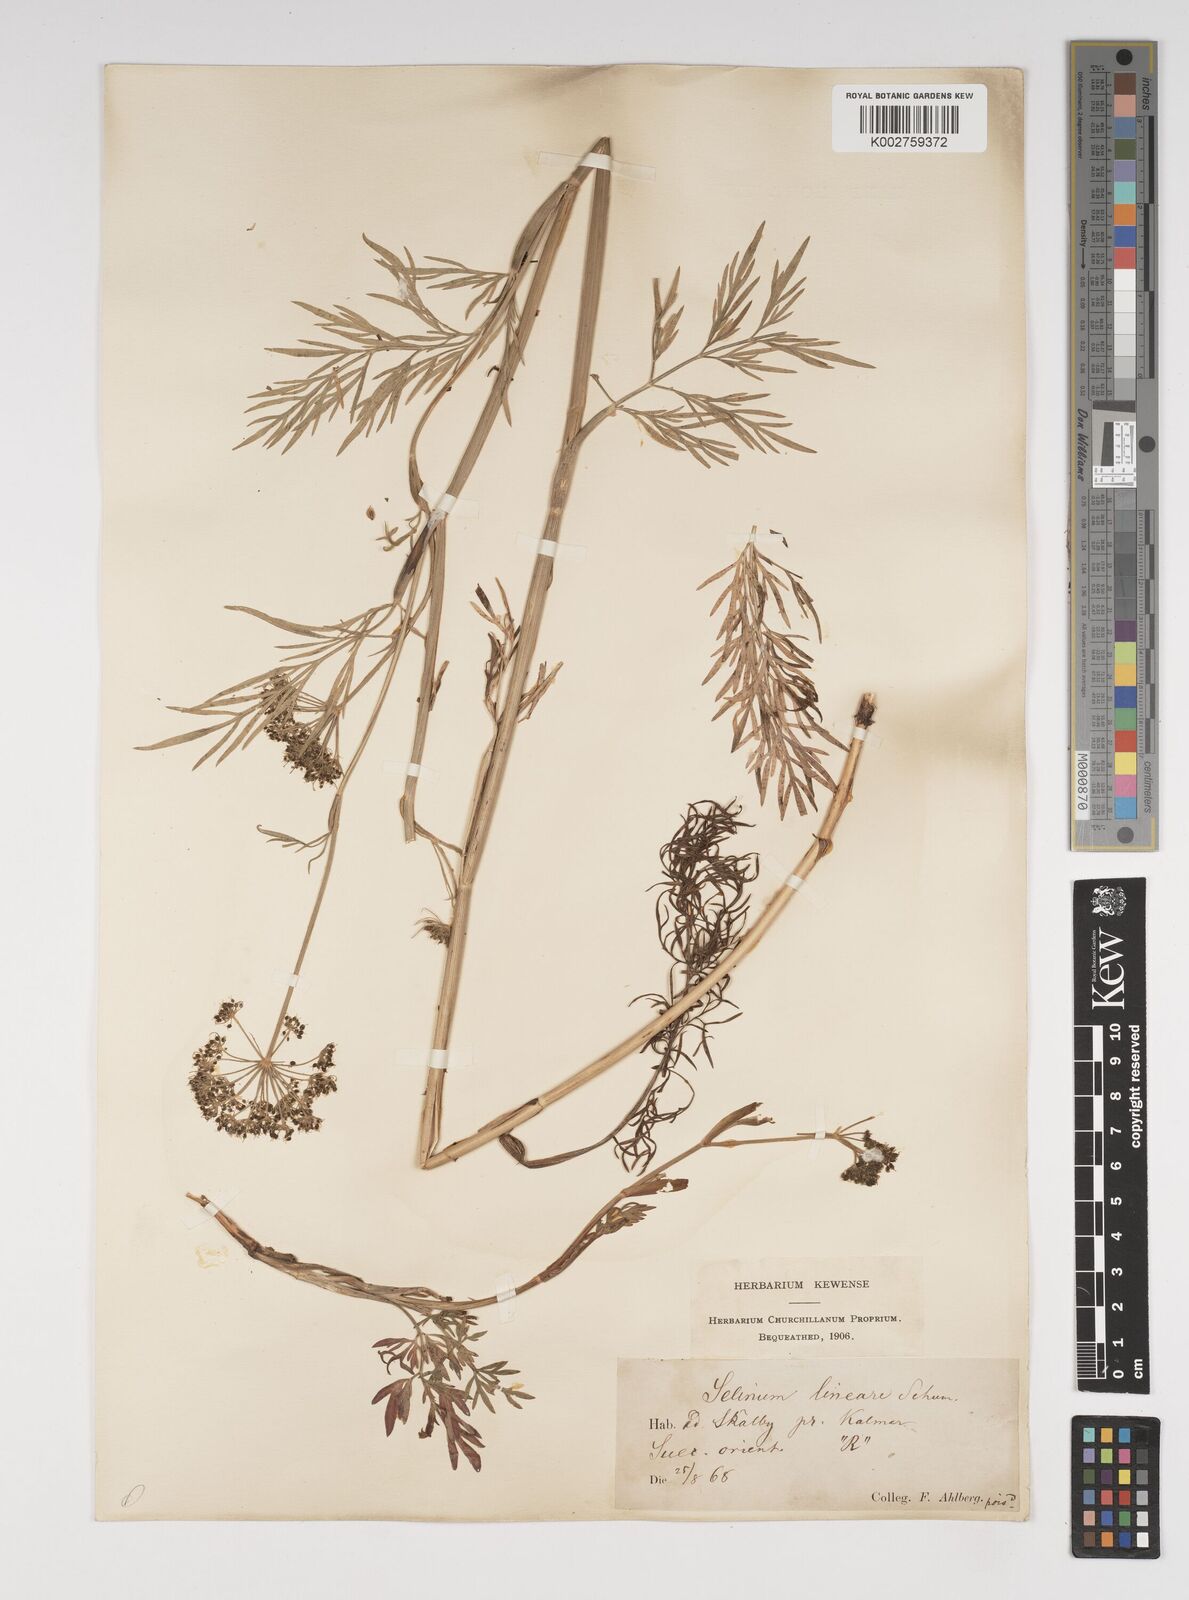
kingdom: Plantae
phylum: Tracheophyta
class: Magnoliopsida
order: Apiales
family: Apiaceae
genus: Kadenia
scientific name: Kadenia dubia
